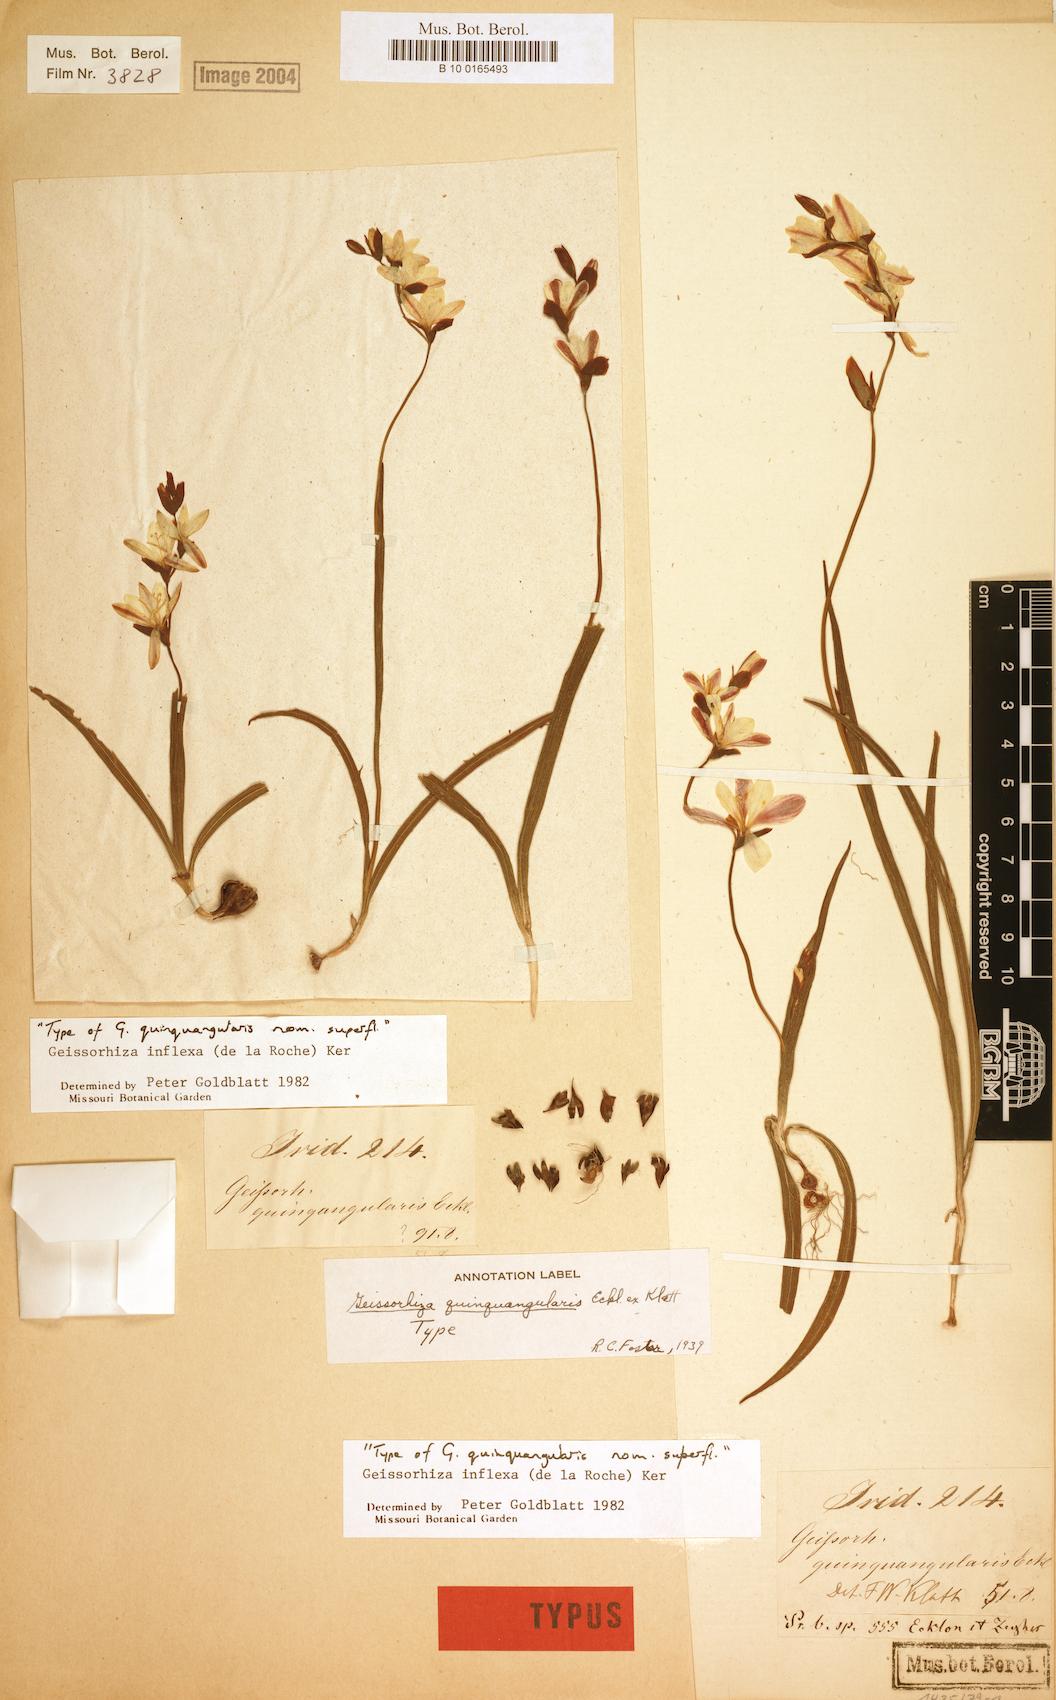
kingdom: Plantae
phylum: Tracheophyta
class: Liliopsida
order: Asparagales
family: Iridaceae
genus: Geissorhiza
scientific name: Geissorhiza inflexa
